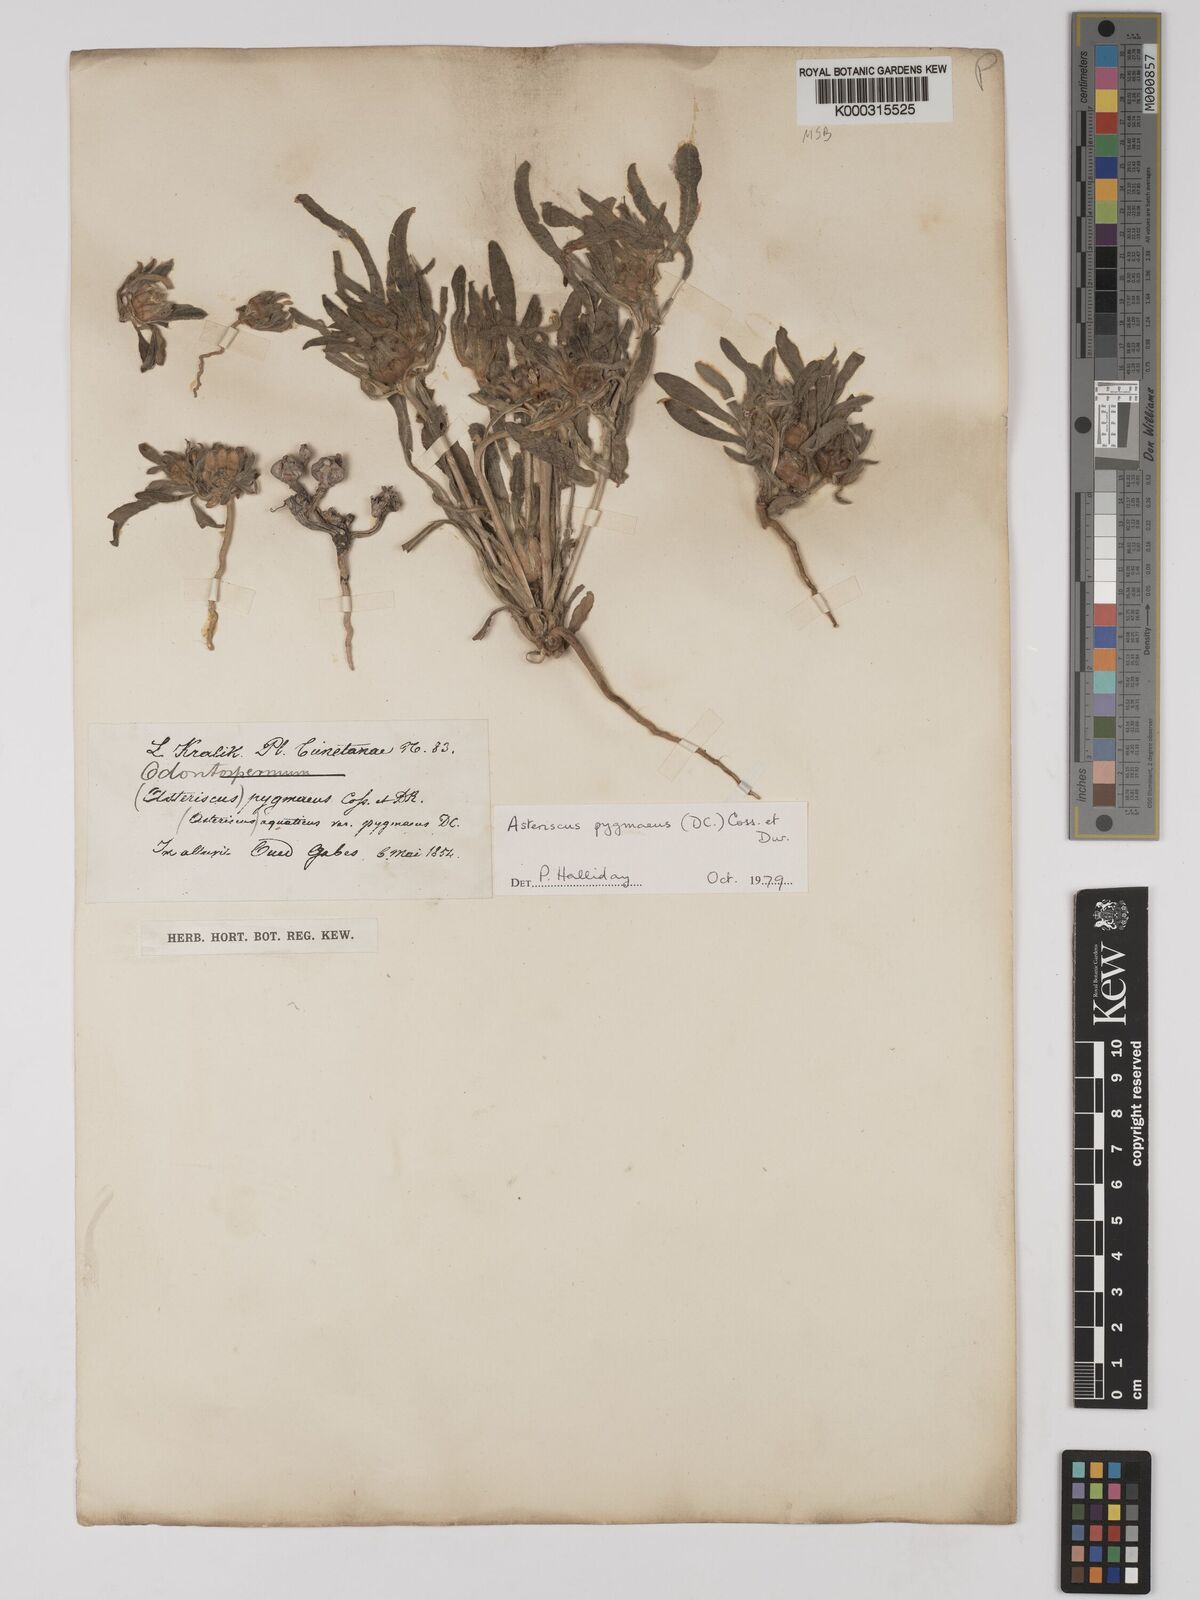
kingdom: Plantae
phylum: Tracheophyta
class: Magnoliopsida
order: Asterales
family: Asteraceae
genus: Pallenis
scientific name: Pallenis hierochuntica
